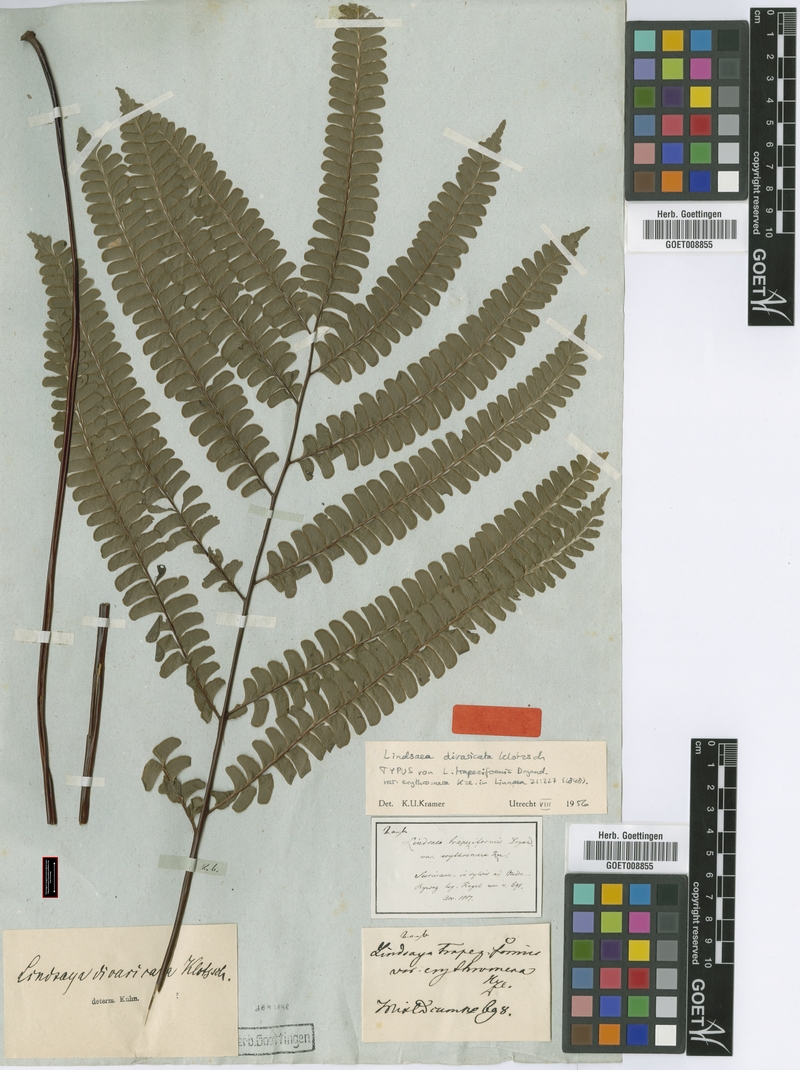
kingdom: Plantae
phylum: Tracheophyta
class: Polypodiopsida
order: Polypodiales
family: Lindsaeaceae
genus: Lindsaea
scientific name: Lindsaea divaricata
